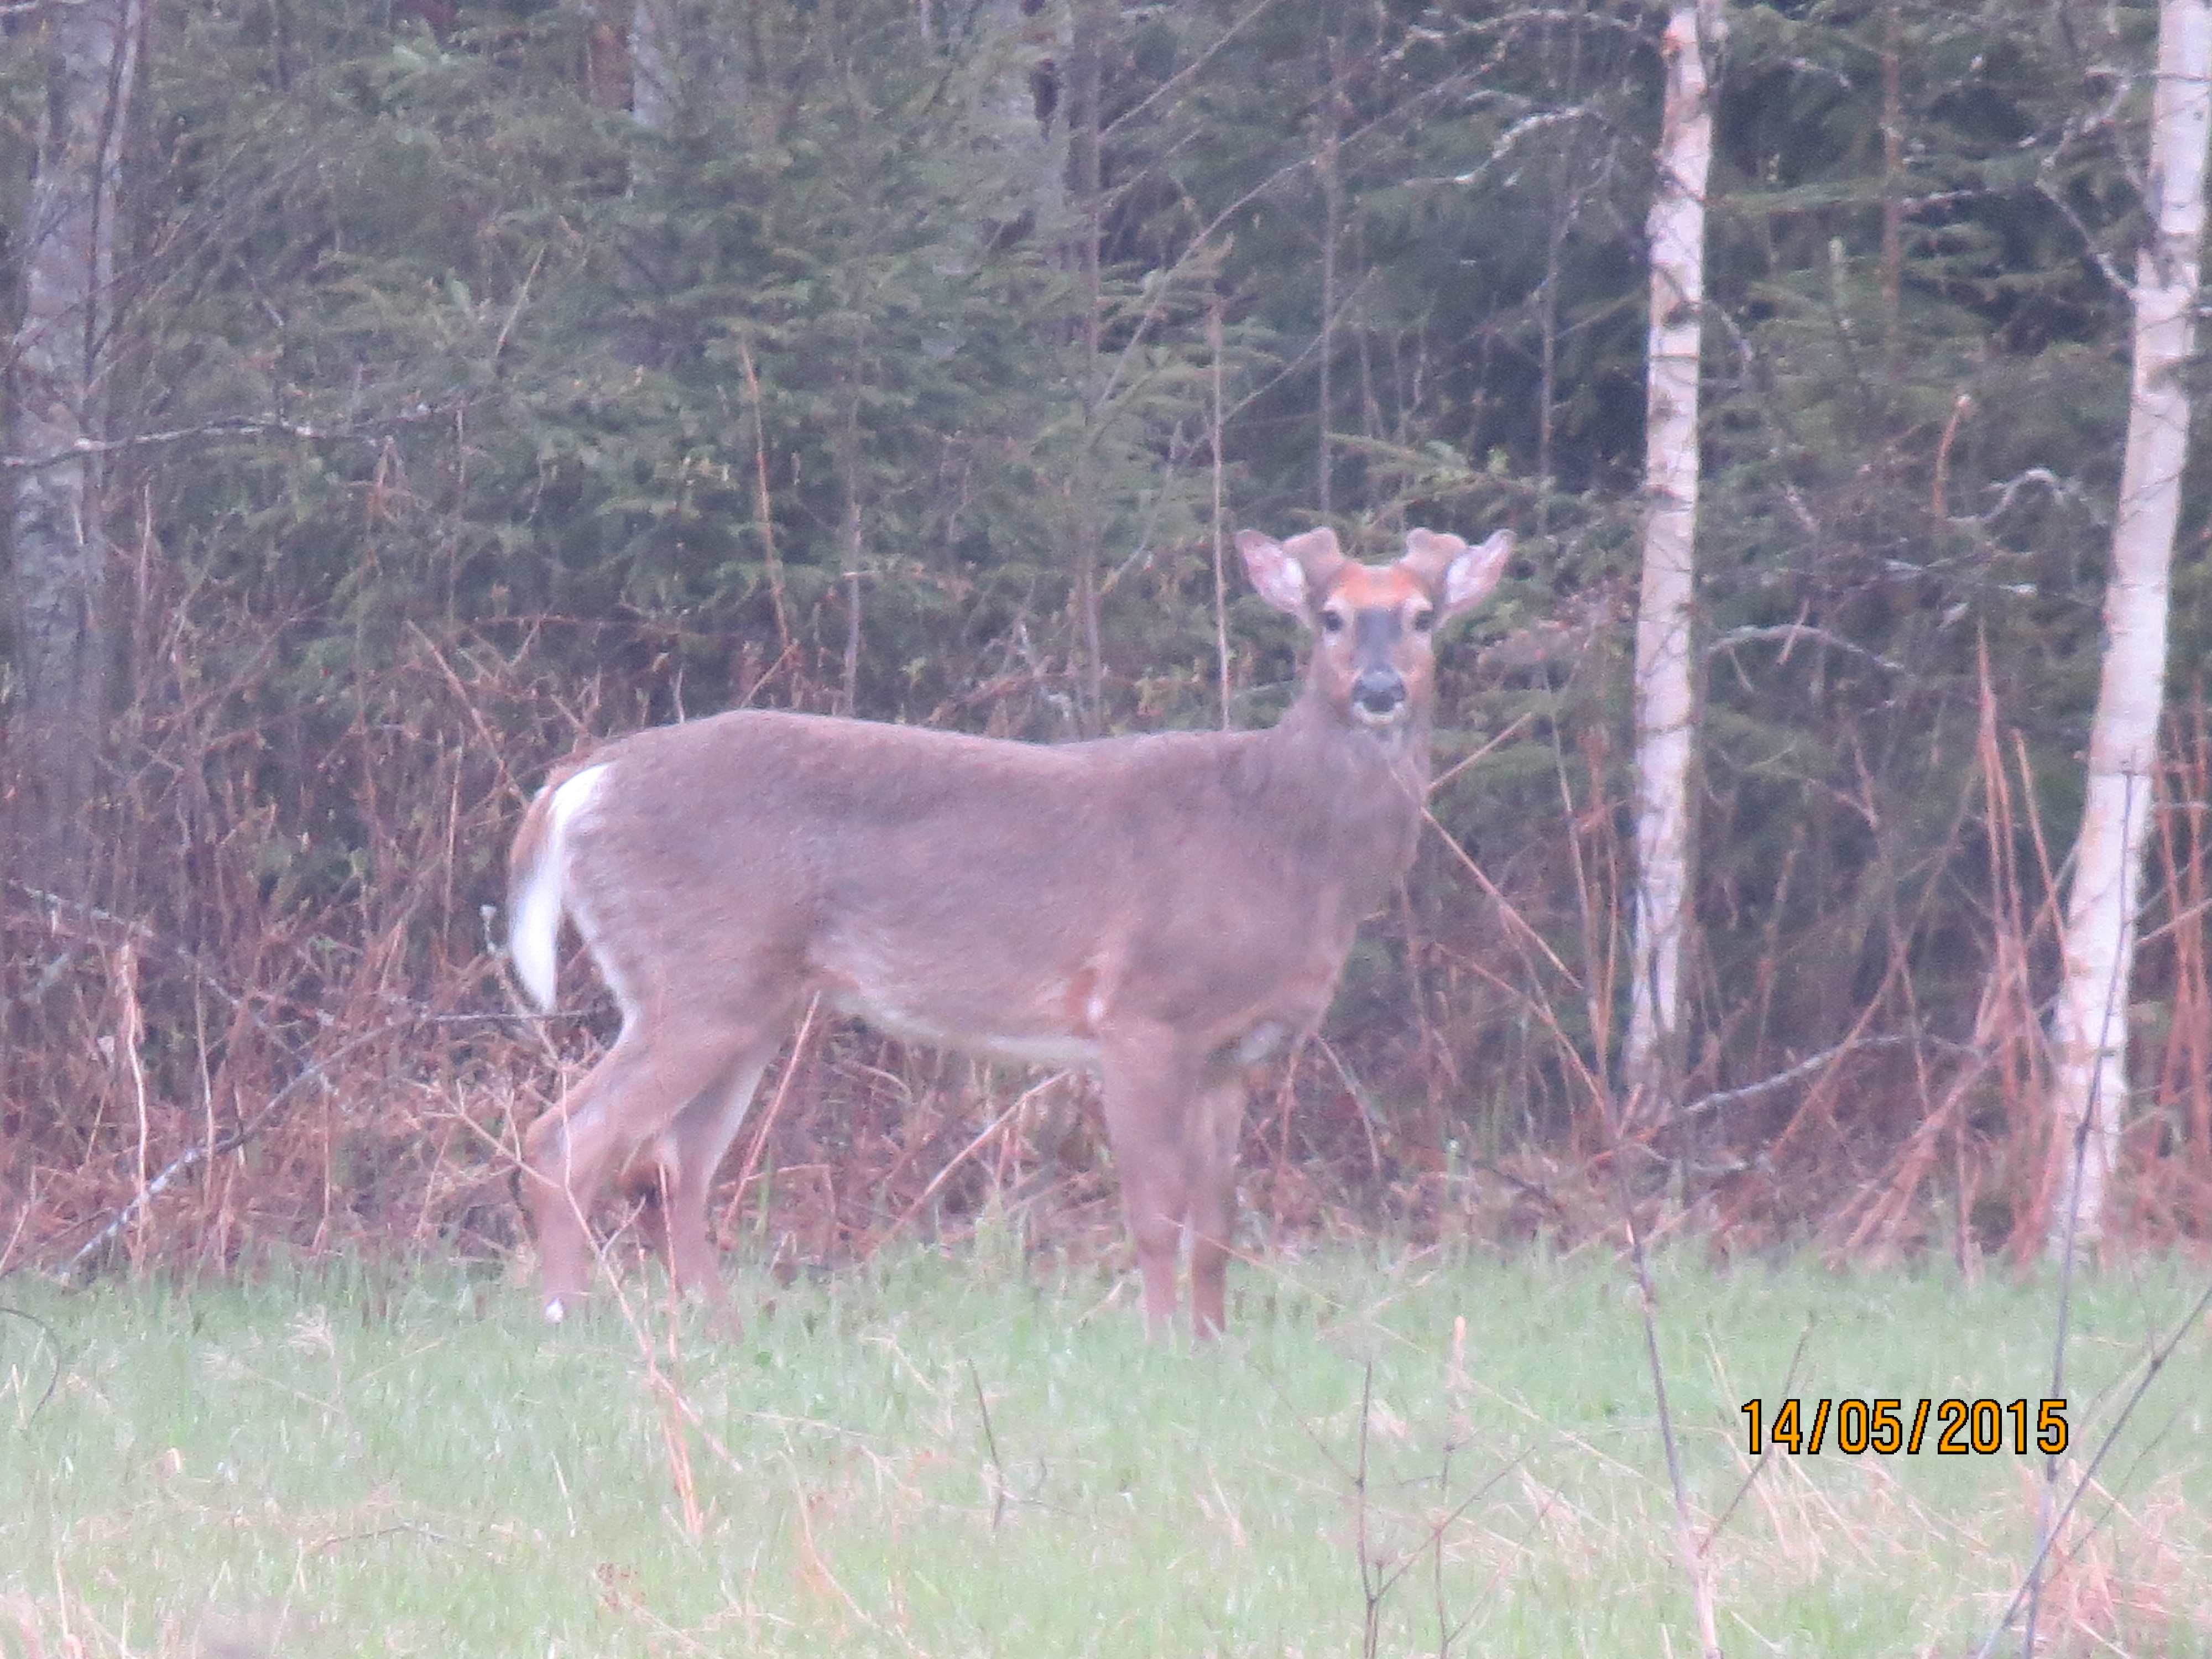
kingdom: Animalia
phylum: Chordata
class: Mammalia
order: Artiodactyla
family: Cervidae
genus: Odocoileus
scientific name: Odocoileus virginianus
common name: White-tailed deer
